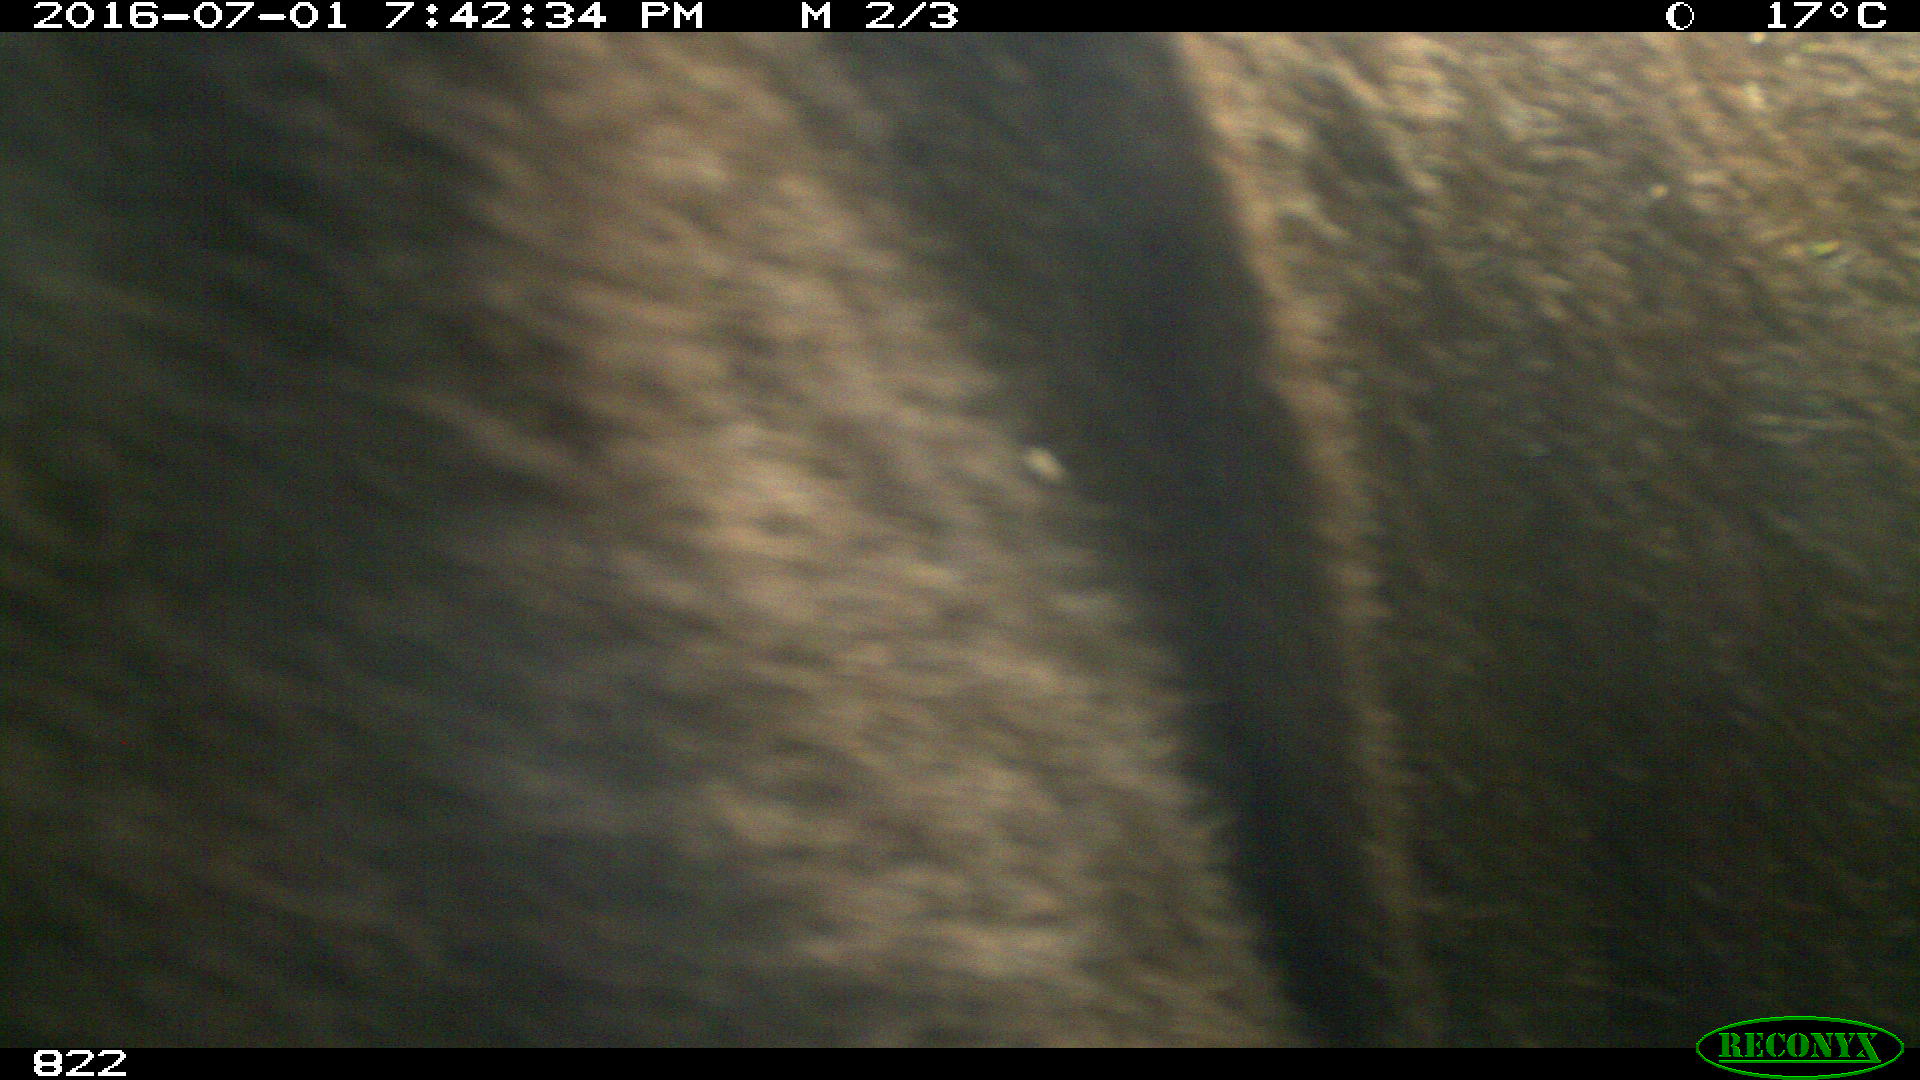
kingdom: Animalia
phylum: Chordata
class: Mammalia
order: Artiodactyla
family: Bovidae
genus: Bos
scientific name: Bos taurus
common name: Domesticated cattle
